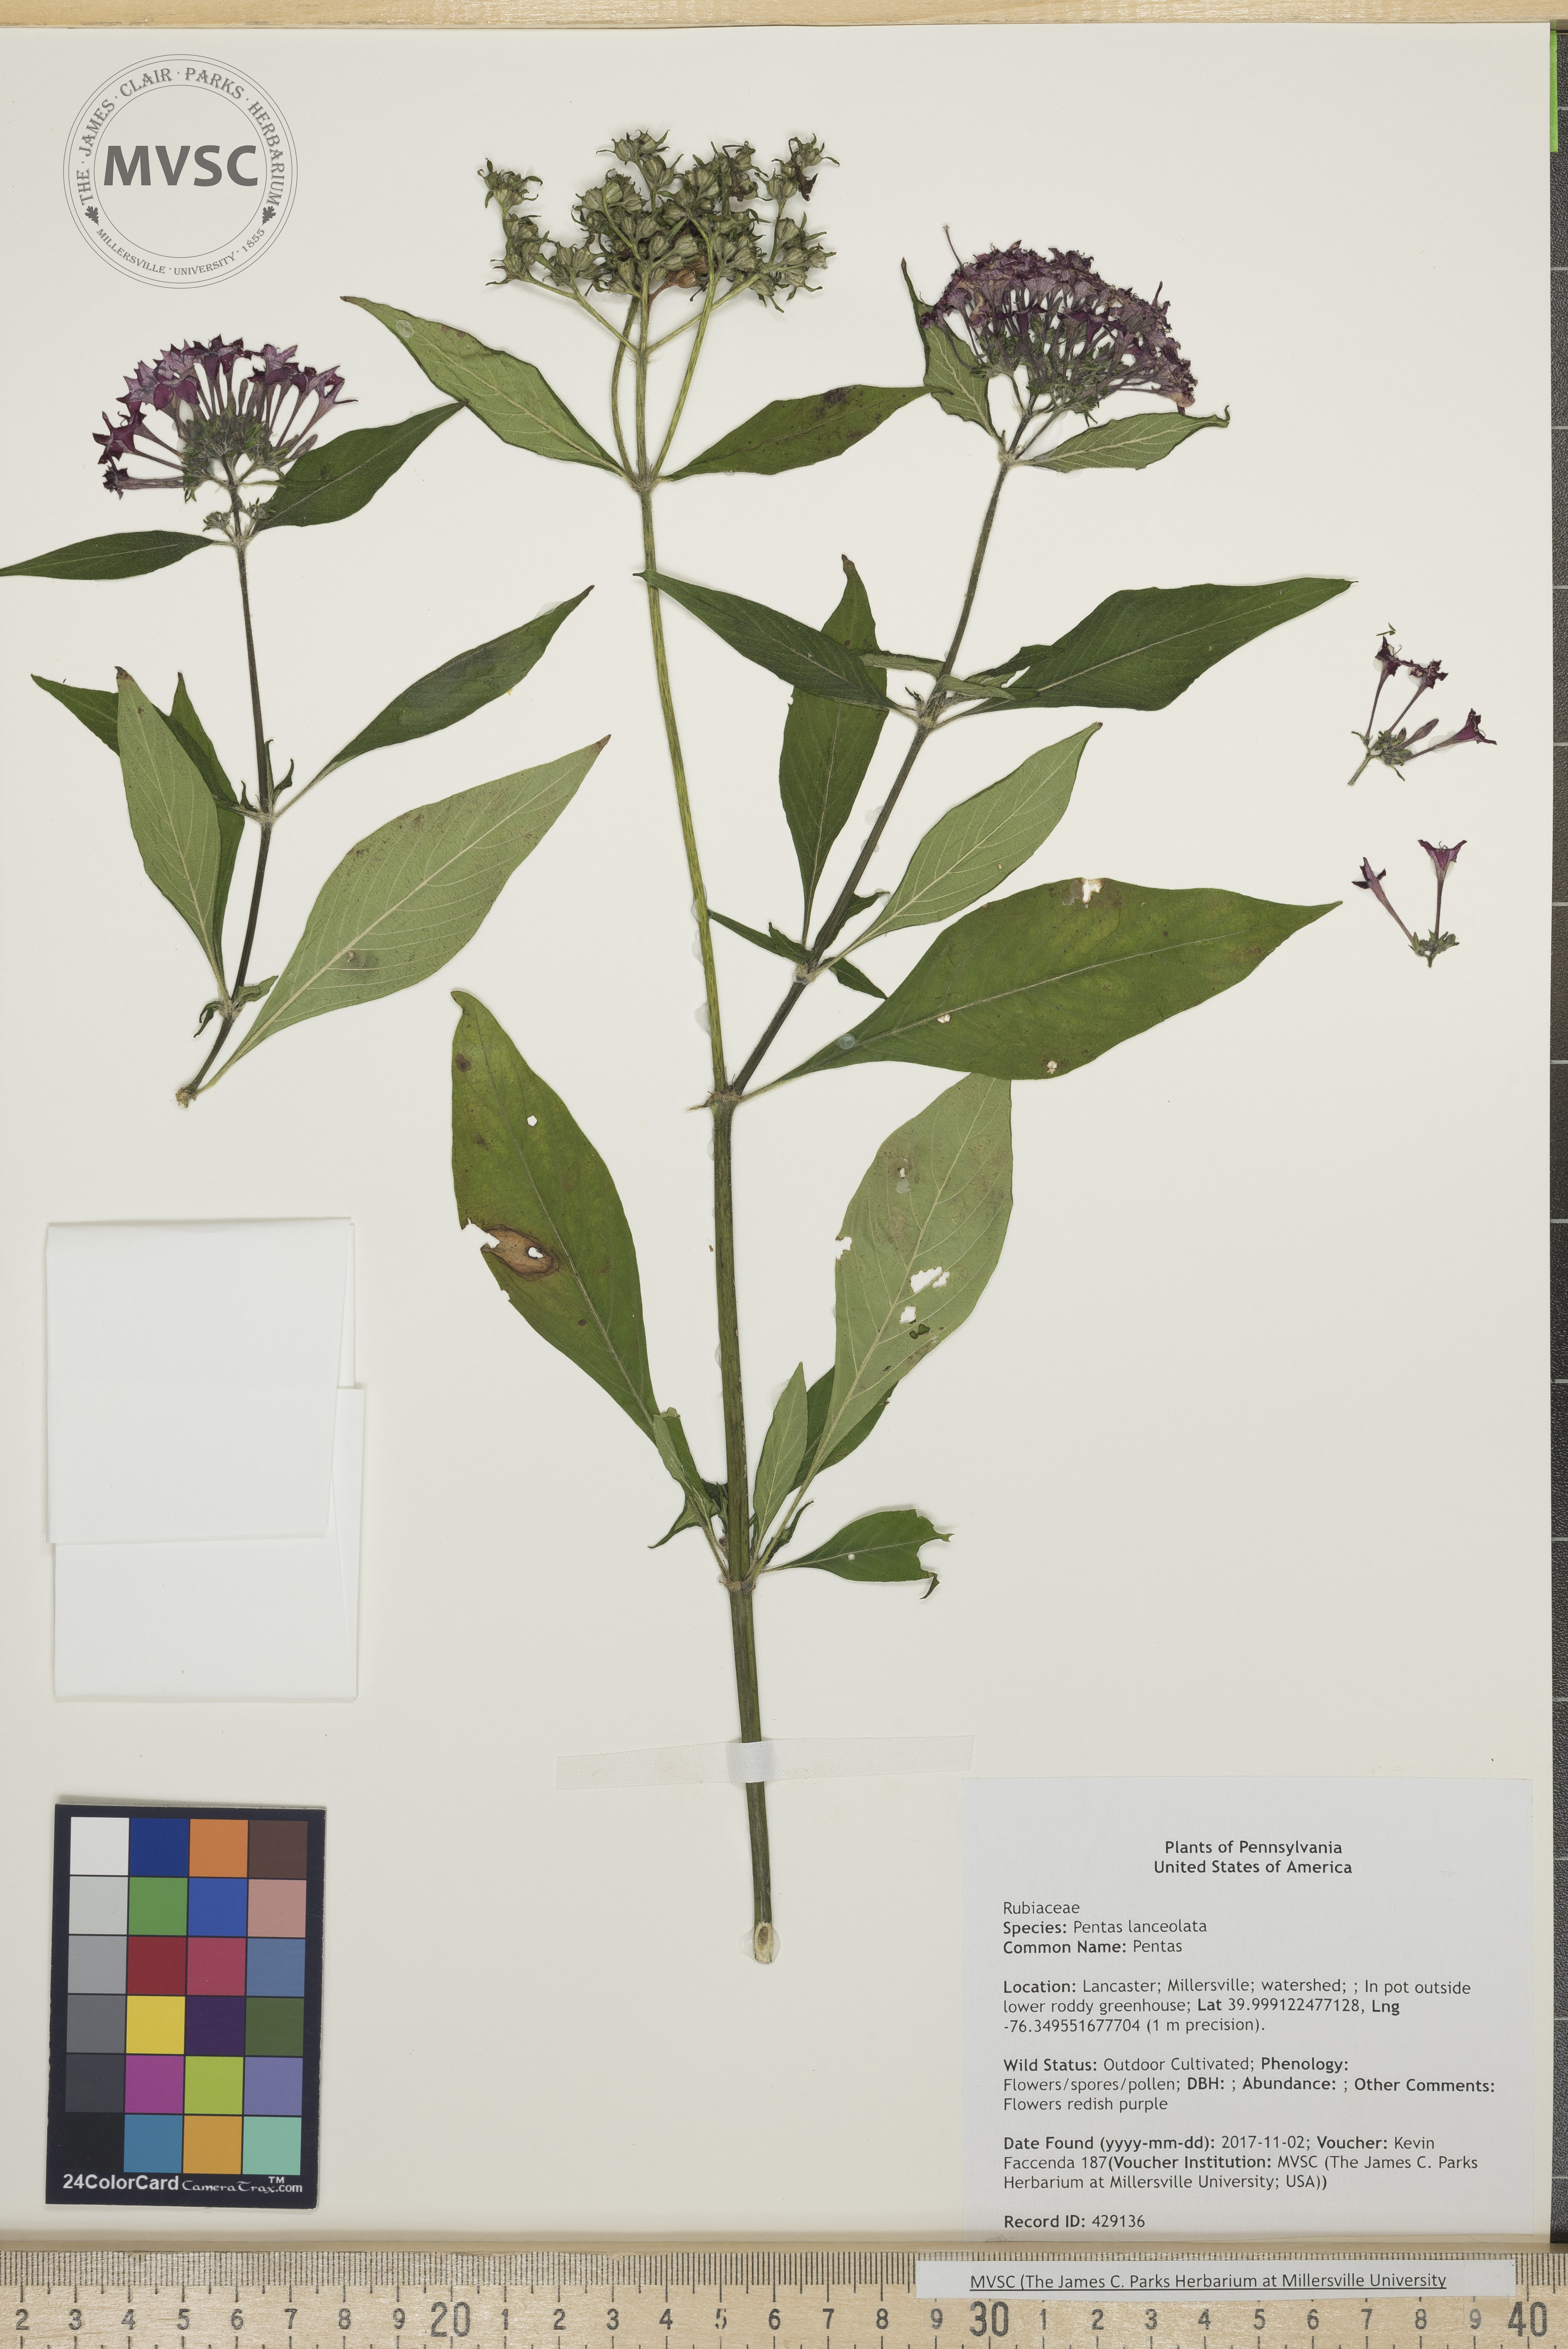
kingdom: Plantae
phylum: Tracheophyta
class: Magnoliopsida
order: Gentianales
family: Rubiaceae
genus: Pentas
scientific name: Pentas lanceolata
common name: Pentas
